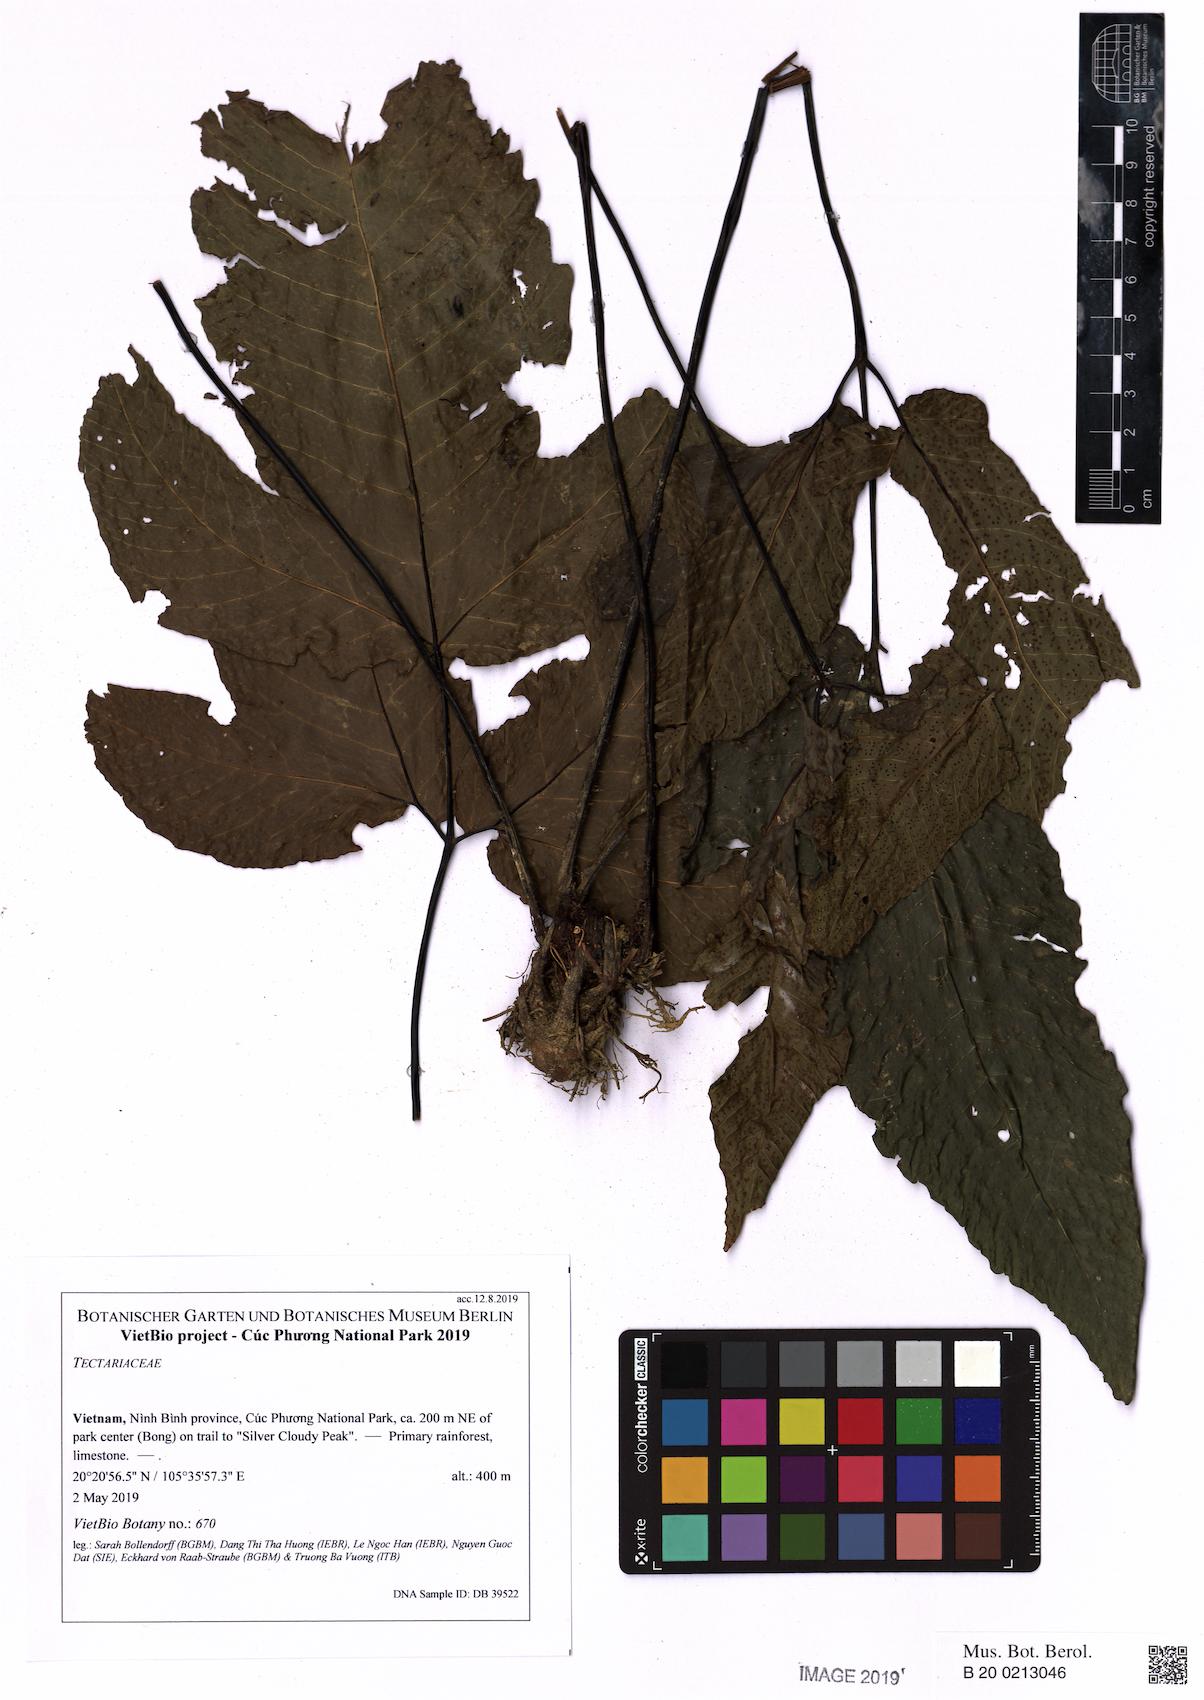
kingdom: Plantae
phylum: Tracheophyta
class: Polypodiopsida
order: Polypodiales
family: Tectariaceae
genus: Tectaria
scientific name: Tectaria polymorpha
